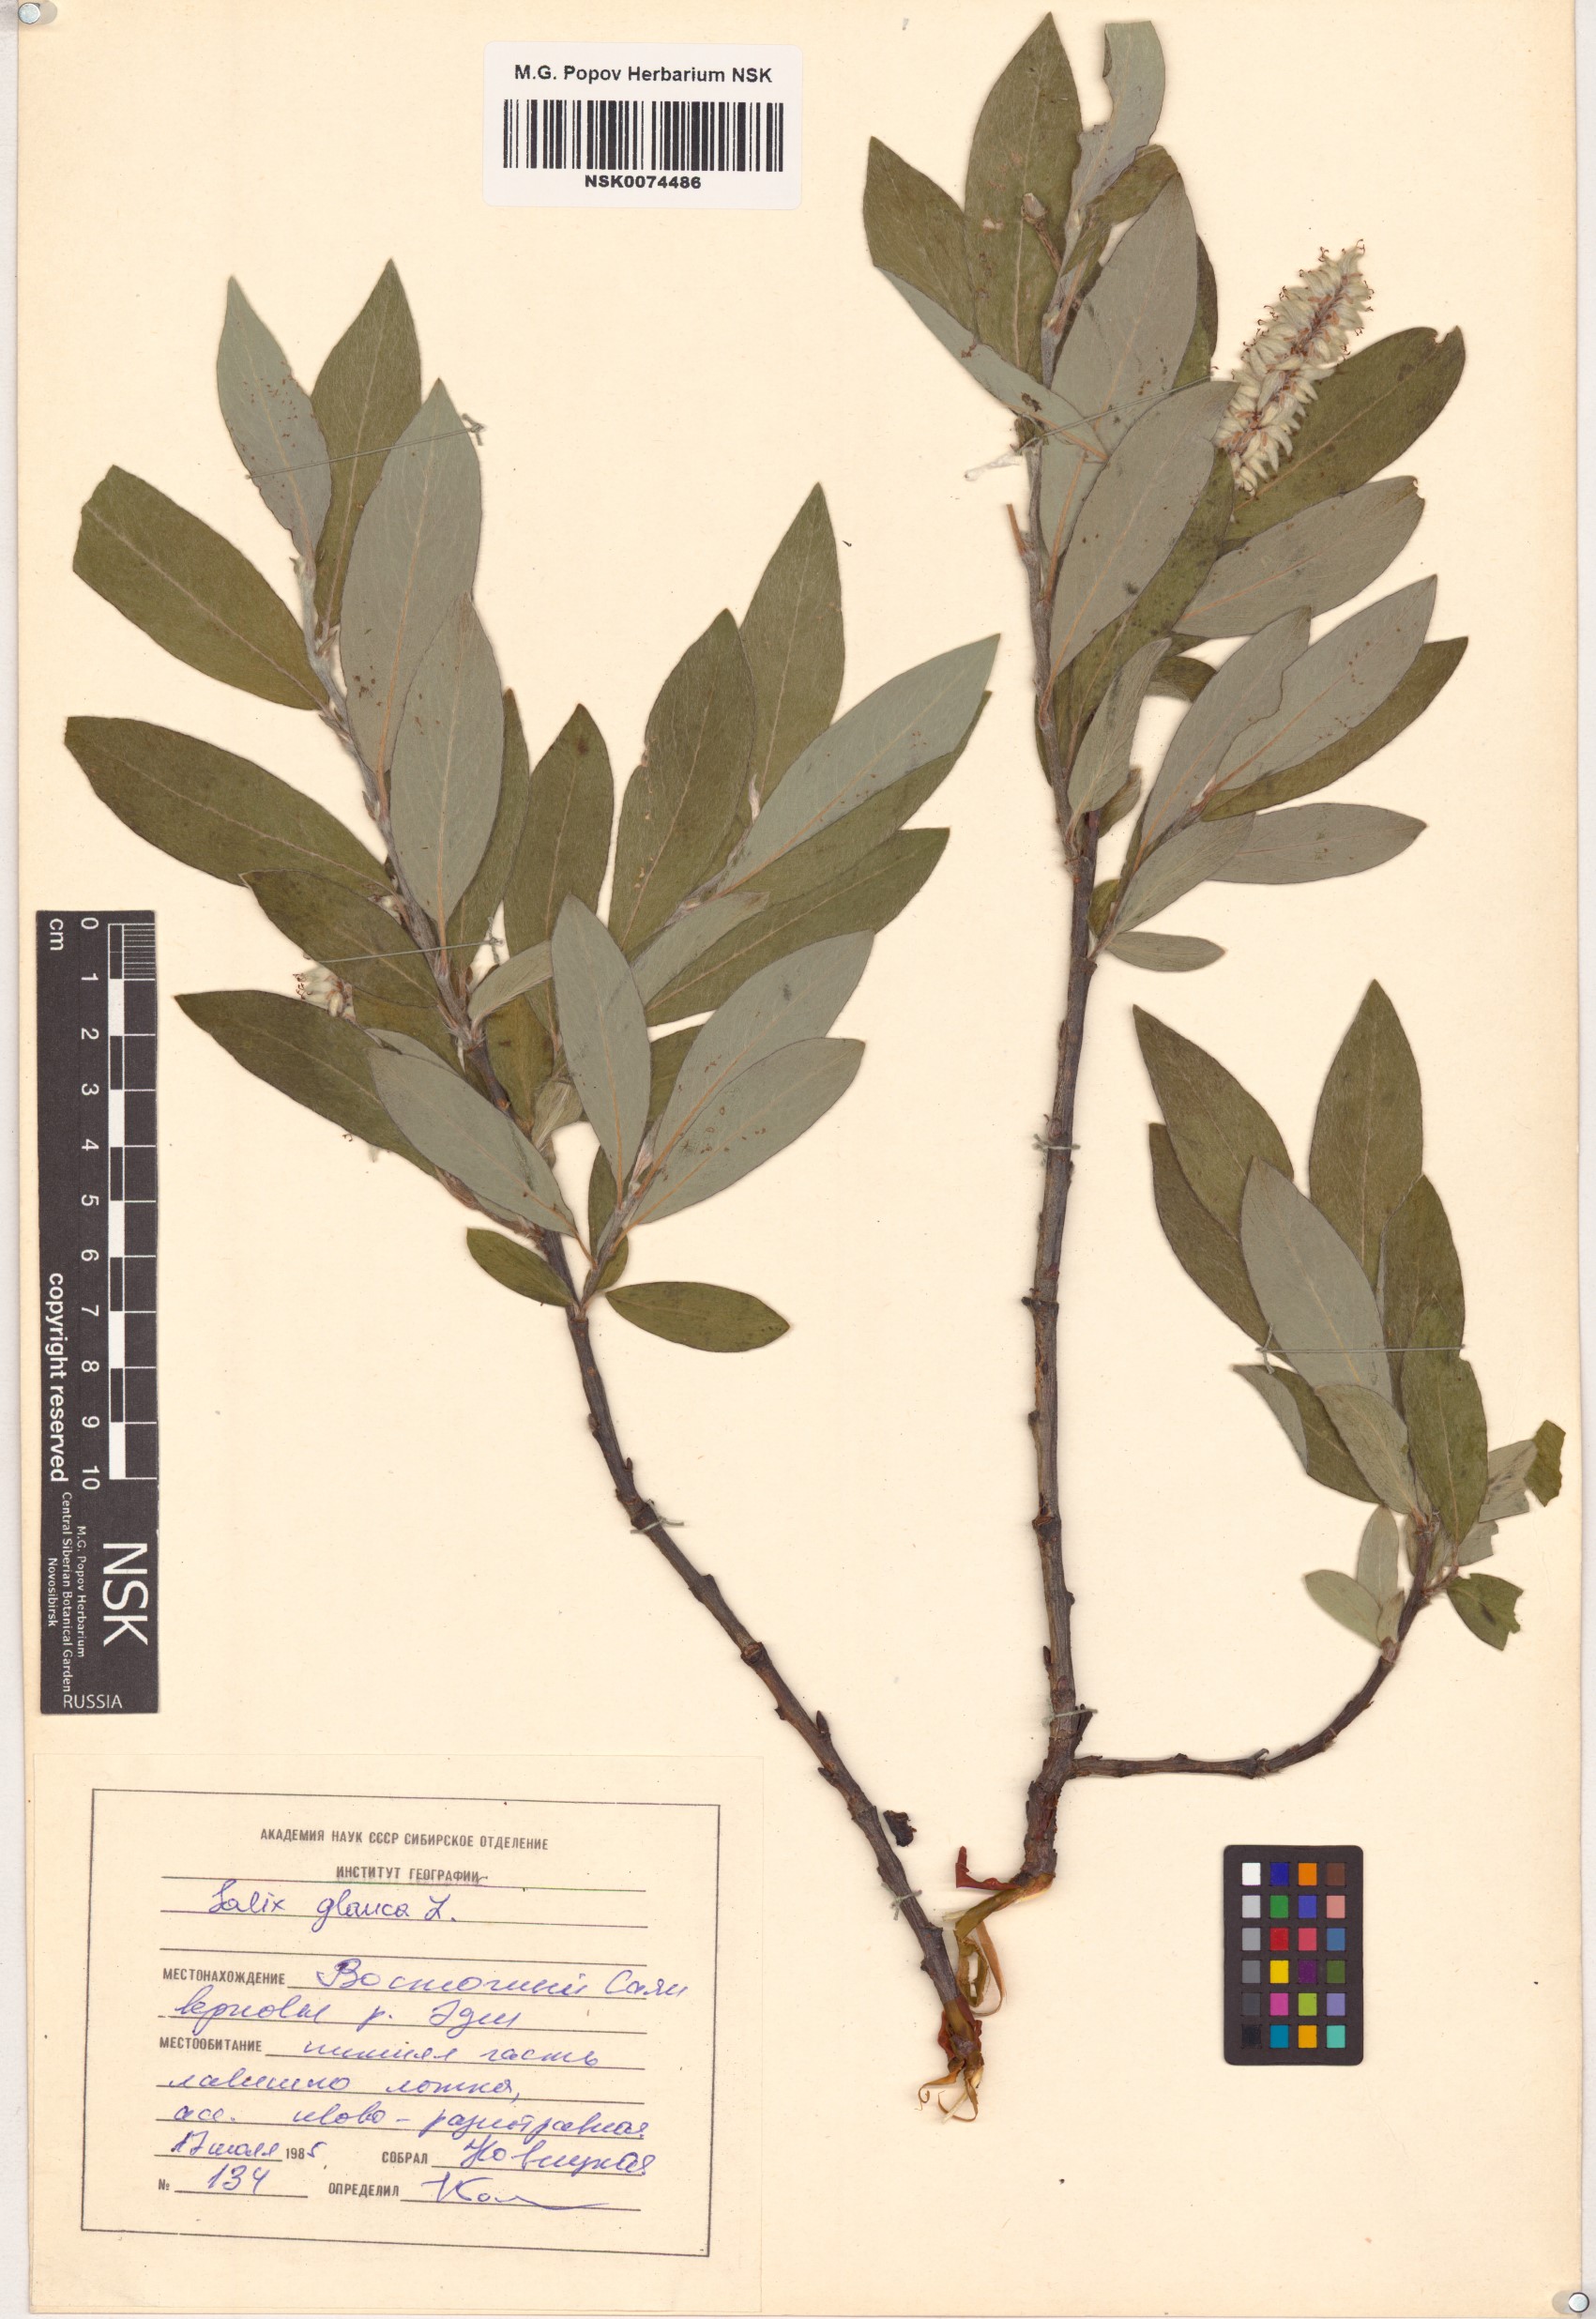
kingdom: Plantae
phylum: Tracheophyta
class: Magnoliopsida
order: Malpighiales
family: Salicaceae
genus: Salix
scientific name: Salix glauca
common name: Glaucous willow
